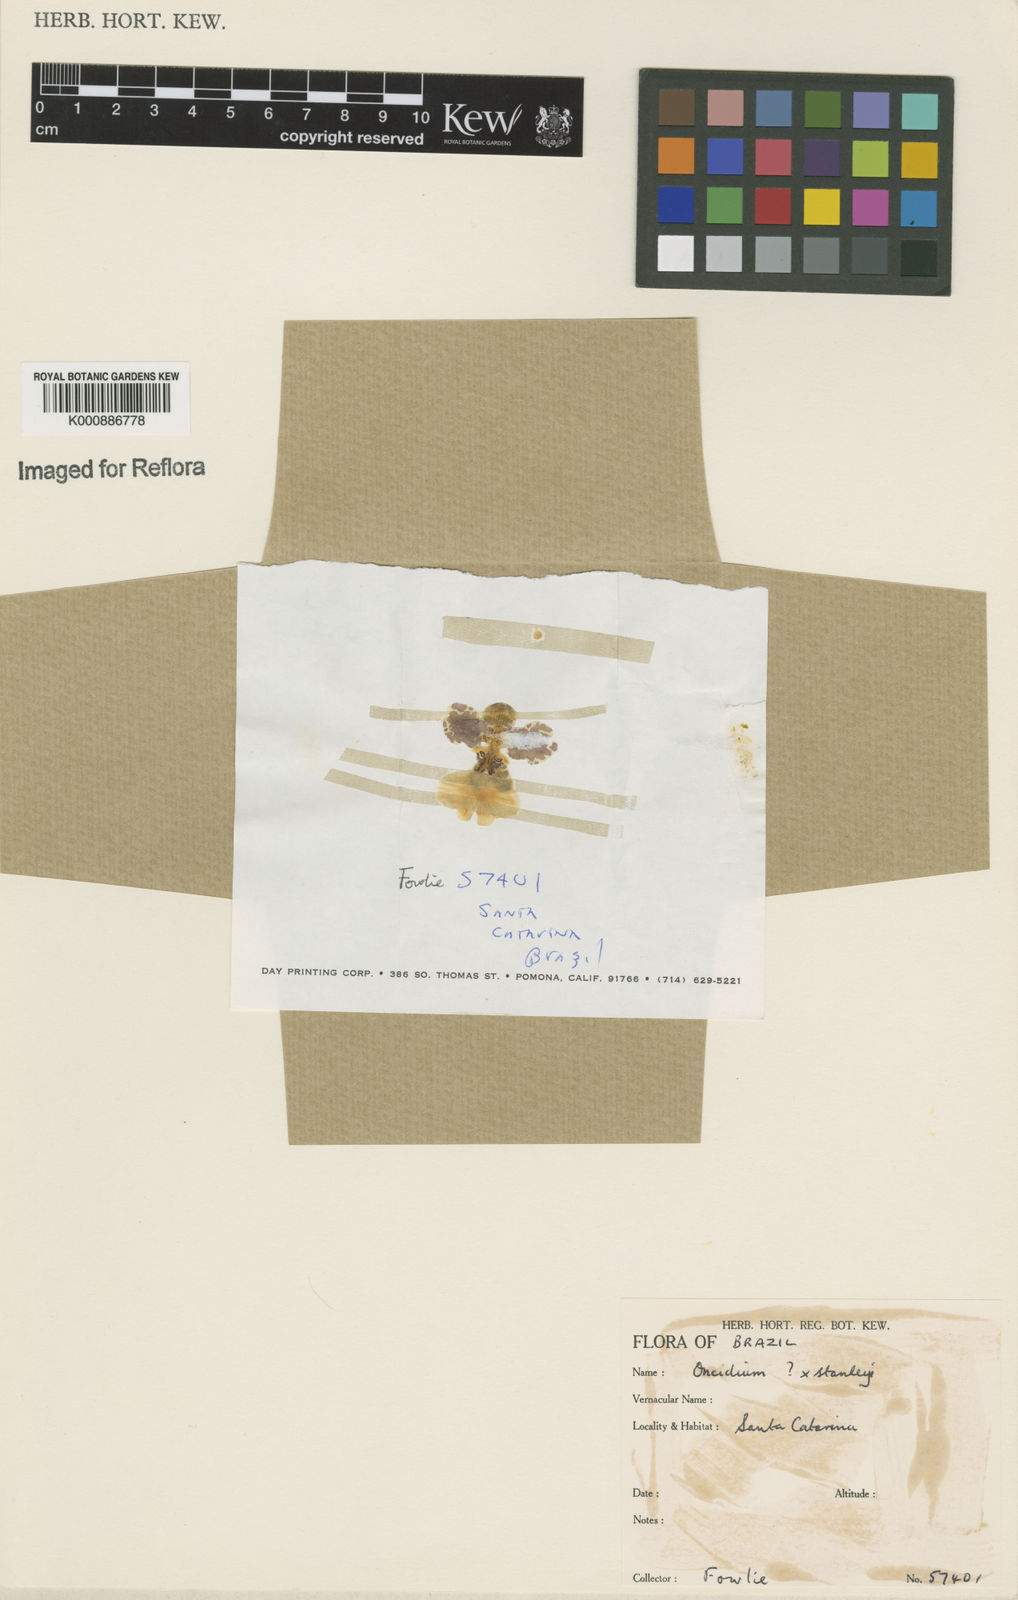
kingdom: Plantae
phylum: Tracheophyta
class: Liliopsida
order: Asparagales
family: Orchidaceae
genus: Gomesa
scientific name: Gomesa stanleyi
